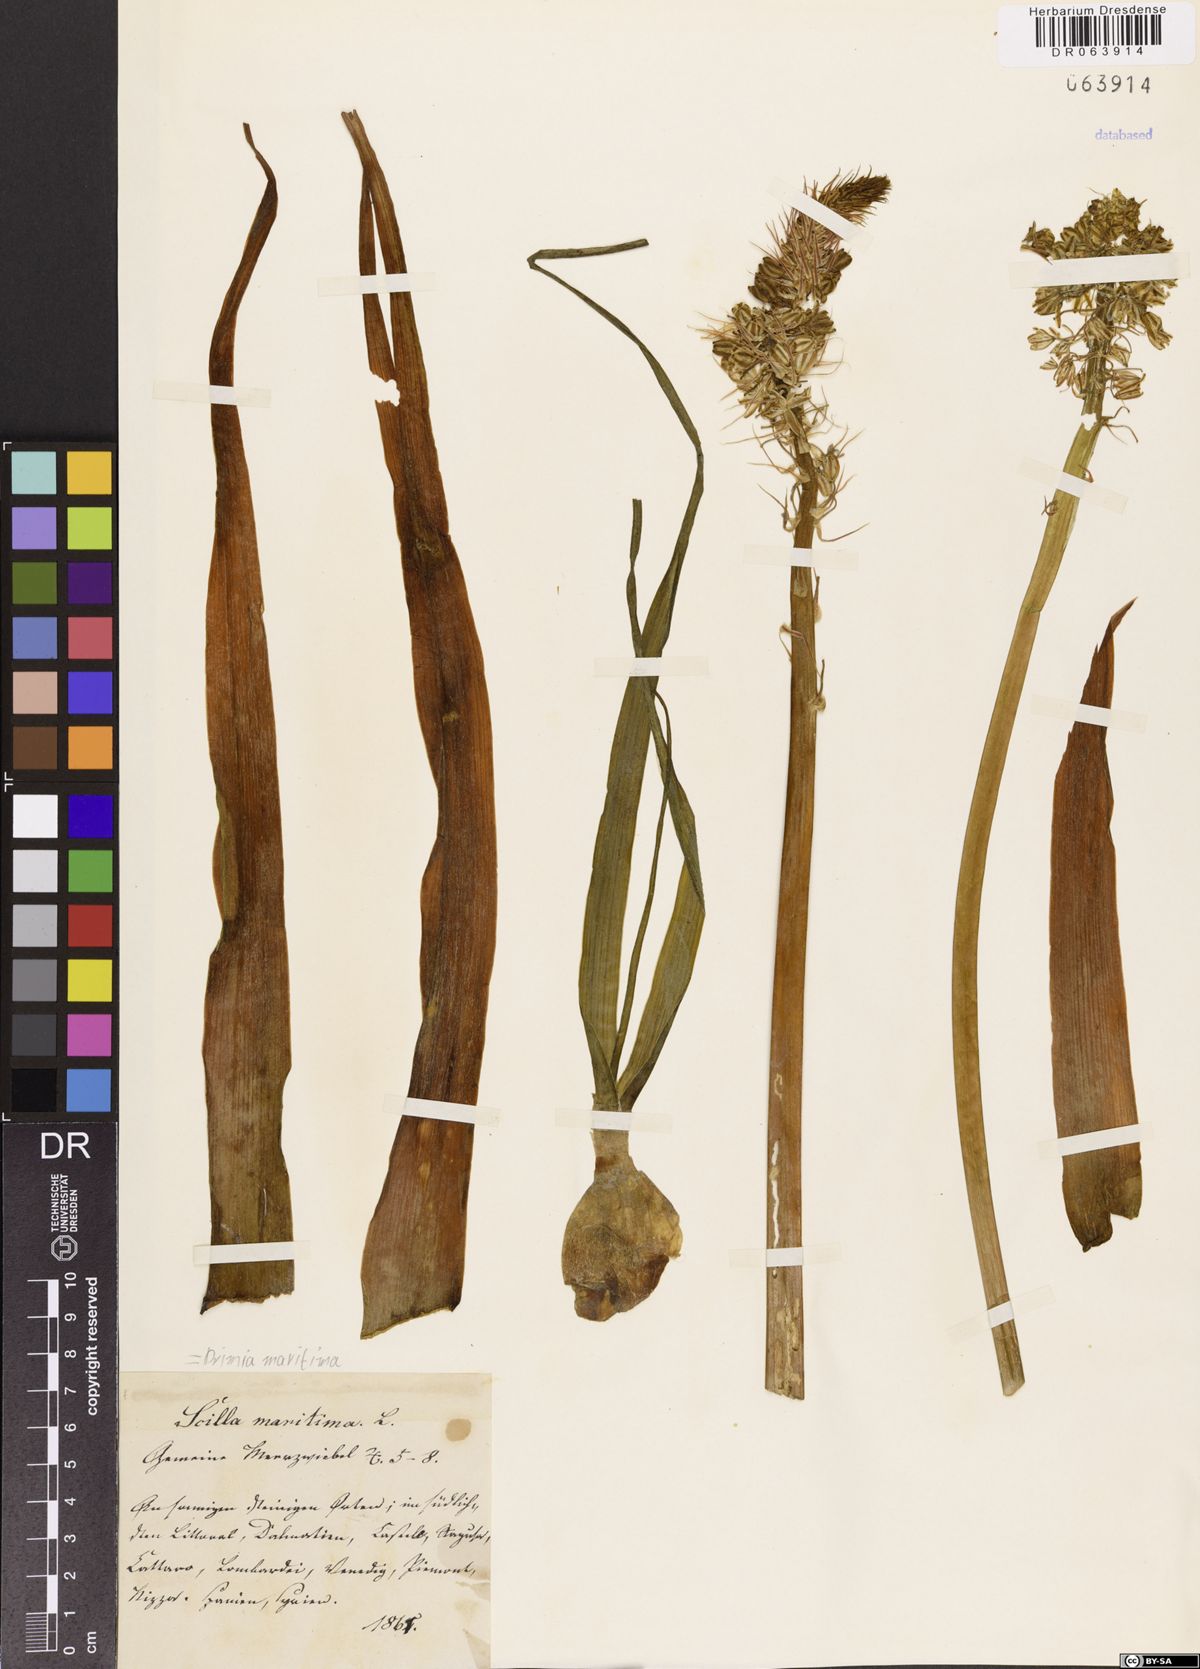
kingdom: Plantae
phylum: Tracheophyta
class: Liliopsida
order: Asparagales
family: Asparagaceae
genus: Drimia
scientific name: Drimia maritima
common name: Maritime squill
